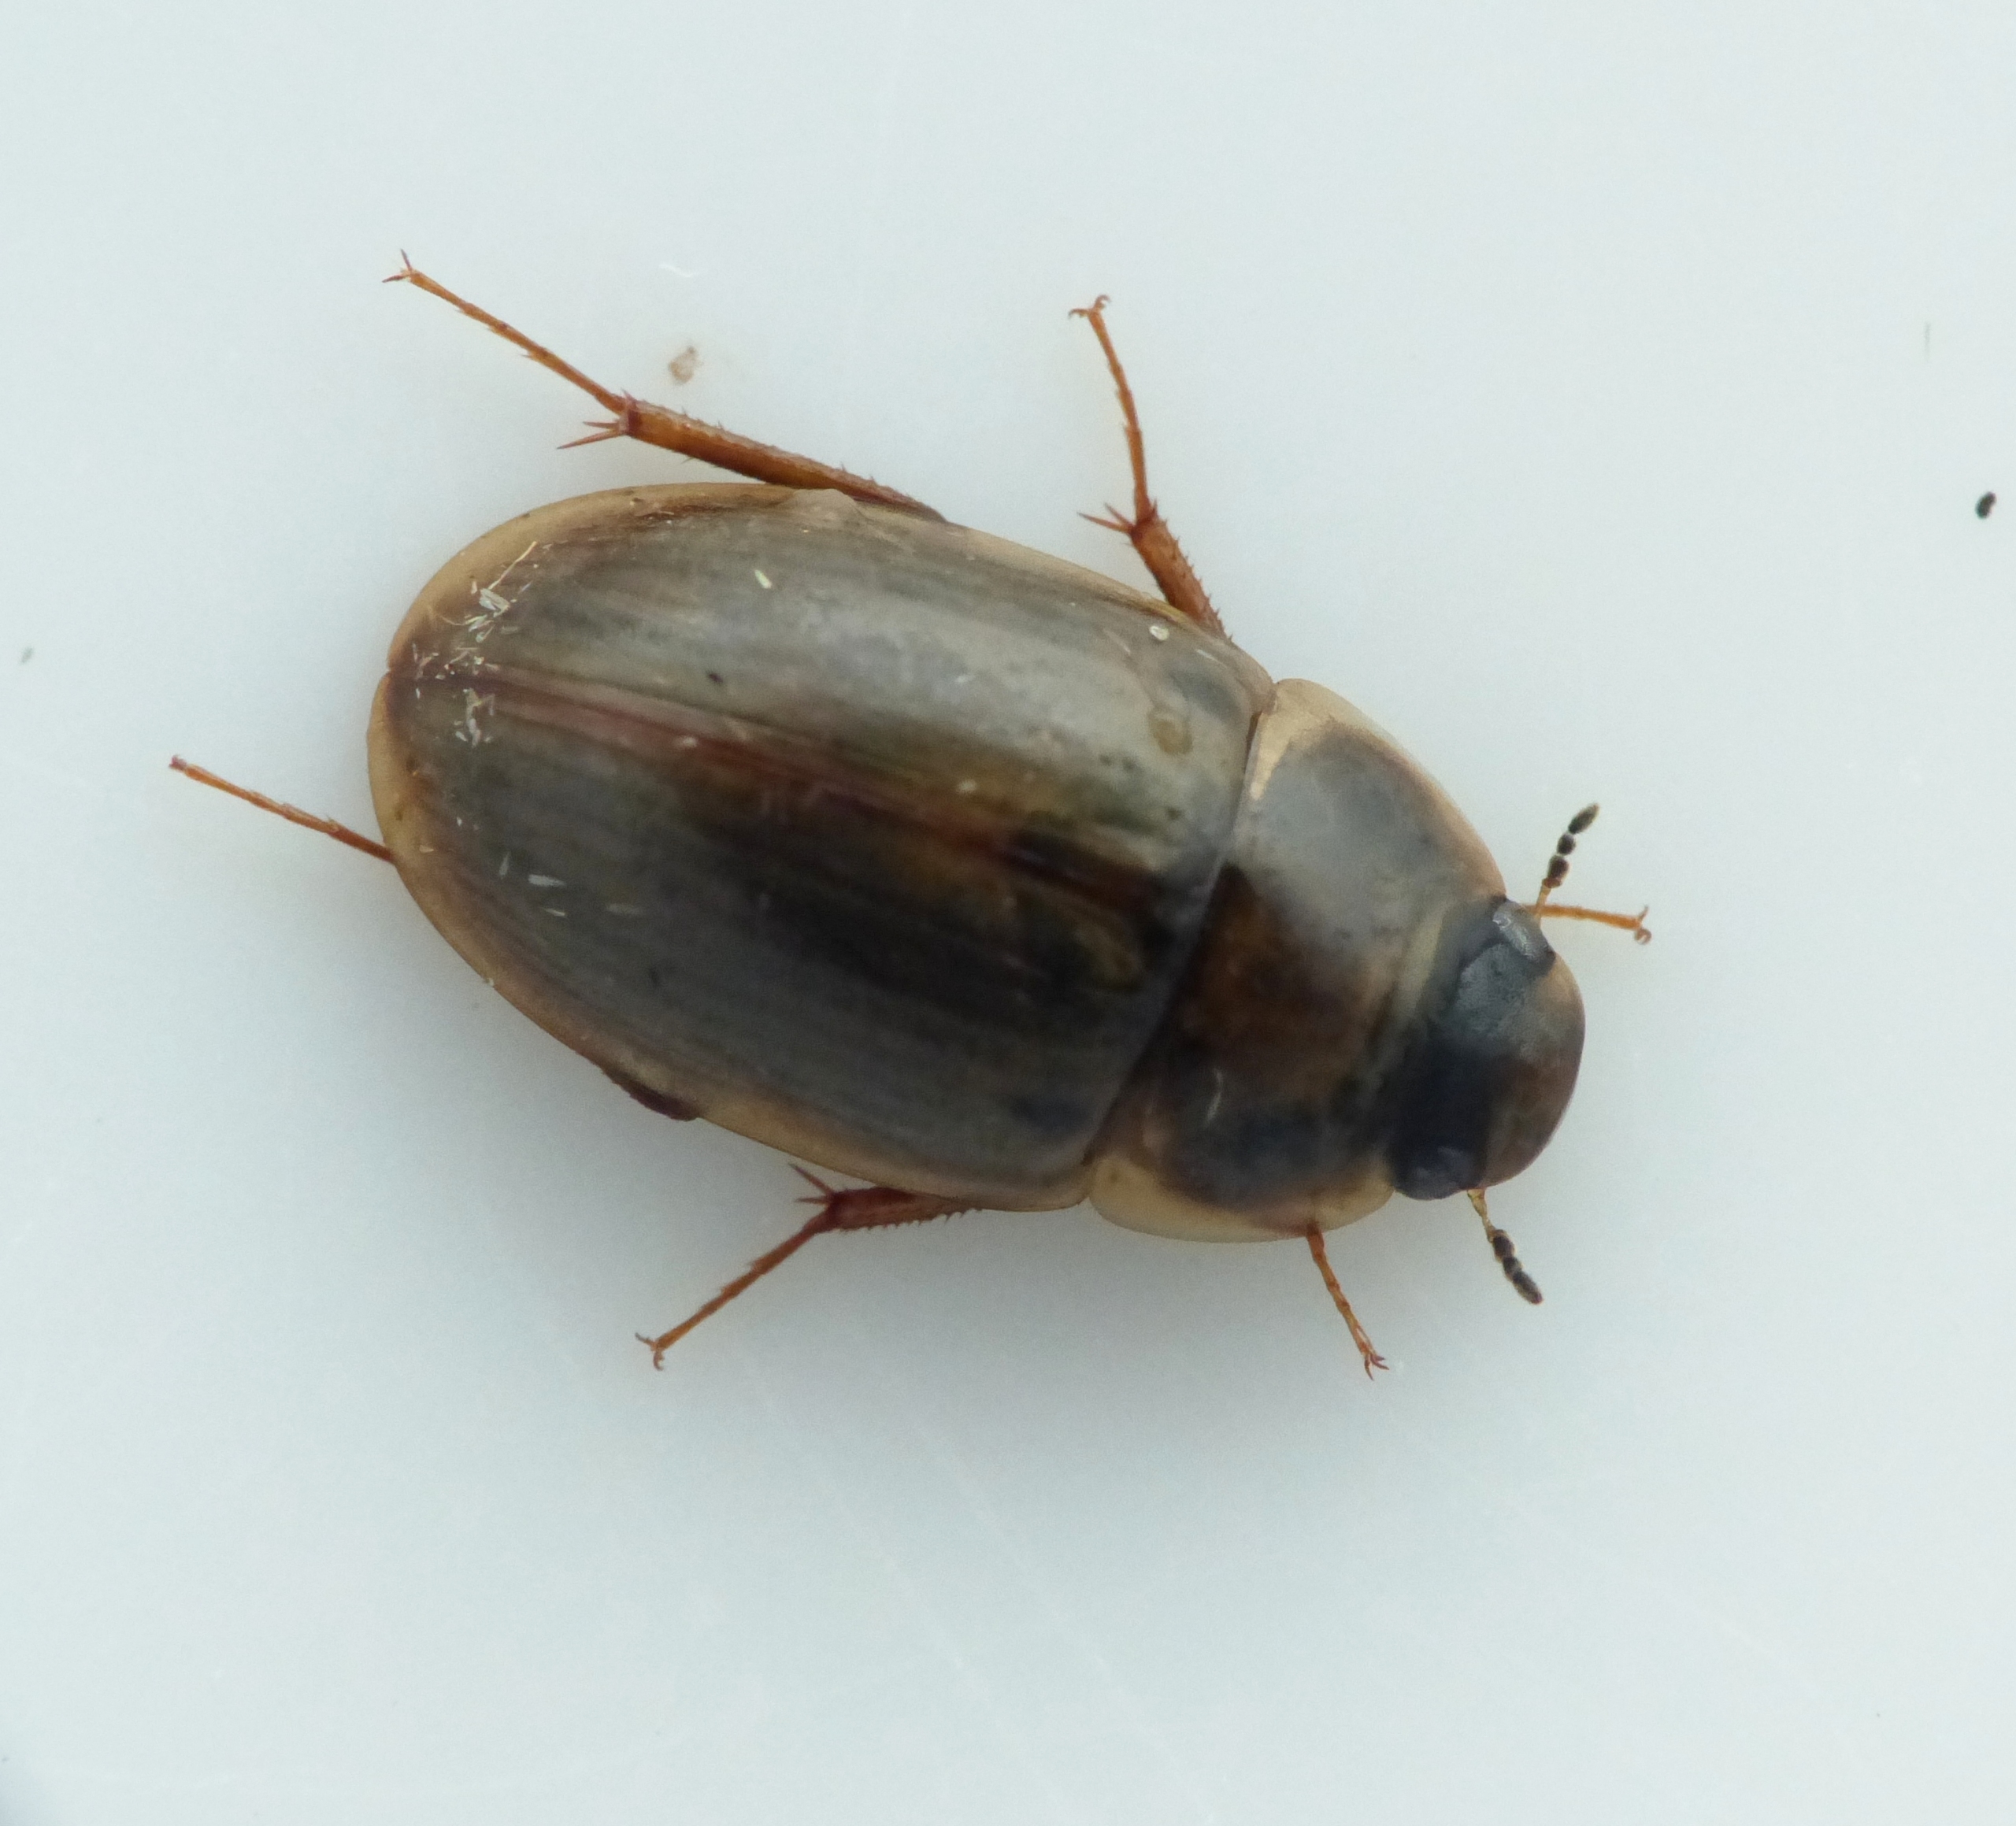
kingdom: Animalia
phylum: Arthropoda
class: Insecta
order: Coleoptera
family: Hydrophilidae
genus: Enochrus
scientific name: Enochrus testaceus
